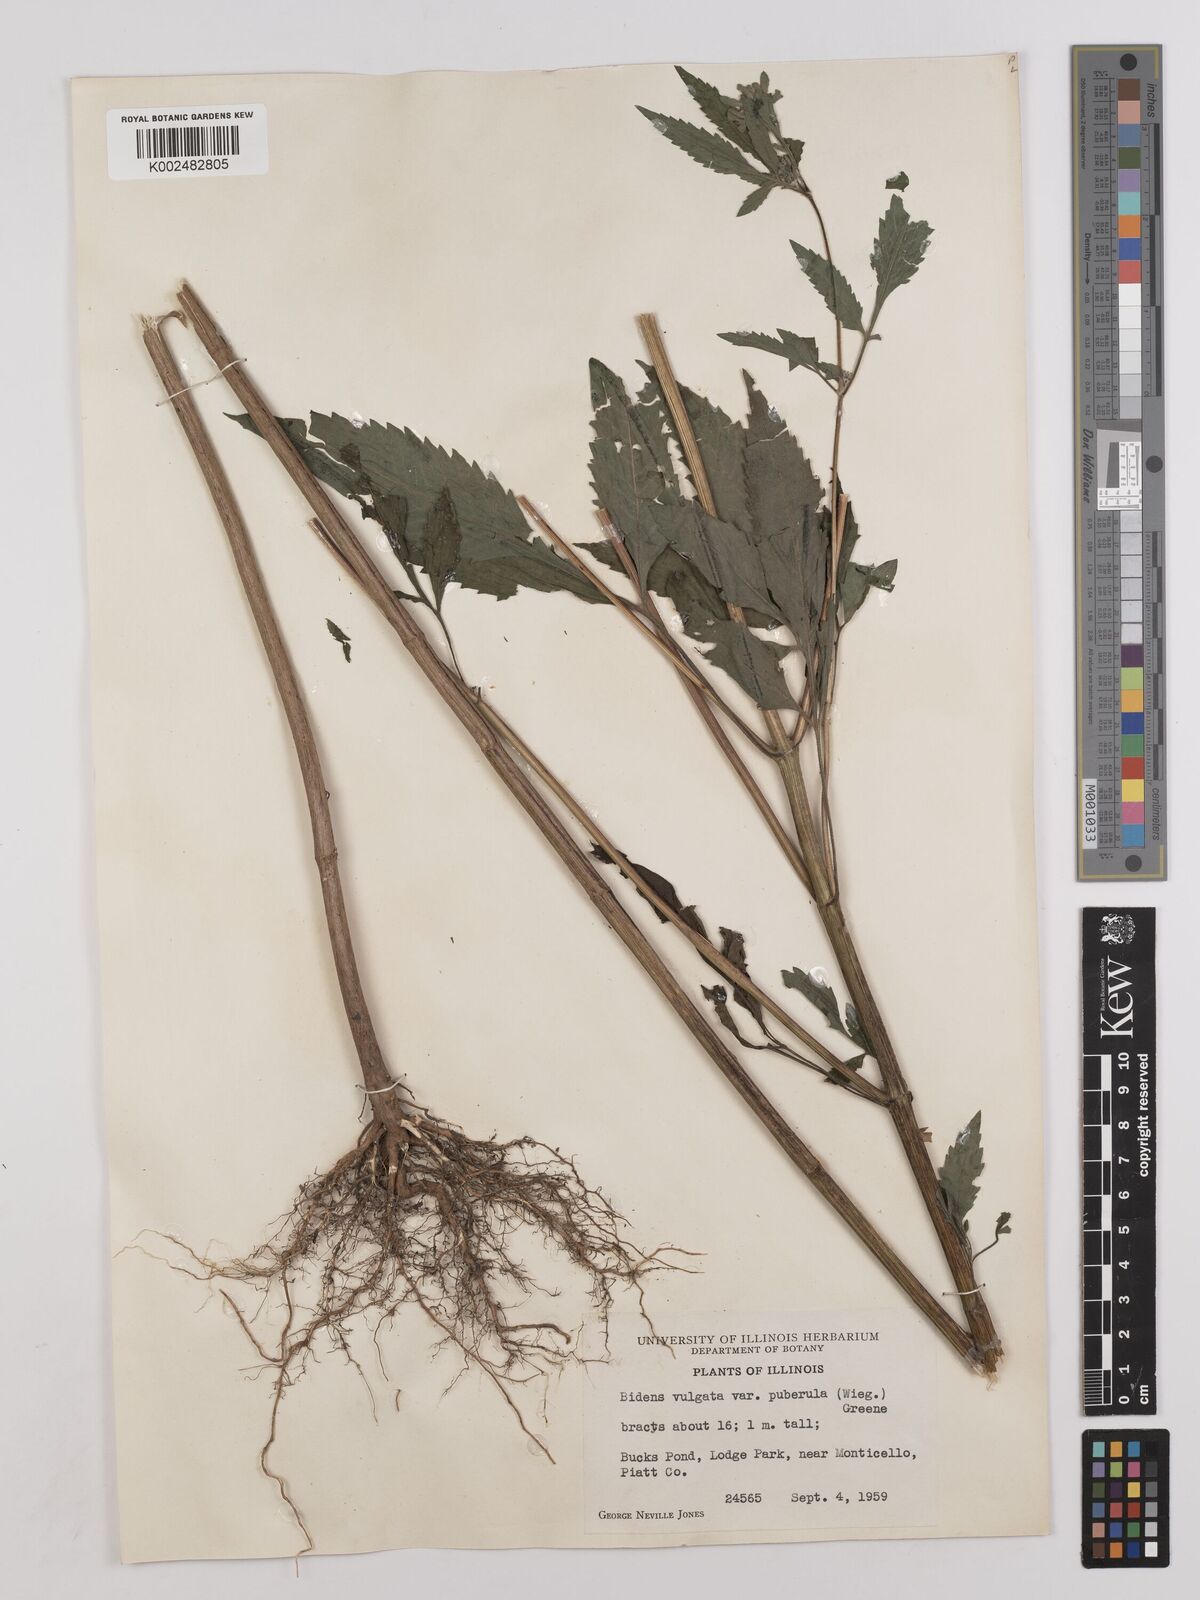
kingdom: Plantae
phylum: Tracheophyta
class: Magnoliopsida
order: Asterales
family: Asteraceae
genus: Bidens
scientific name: Bidens
